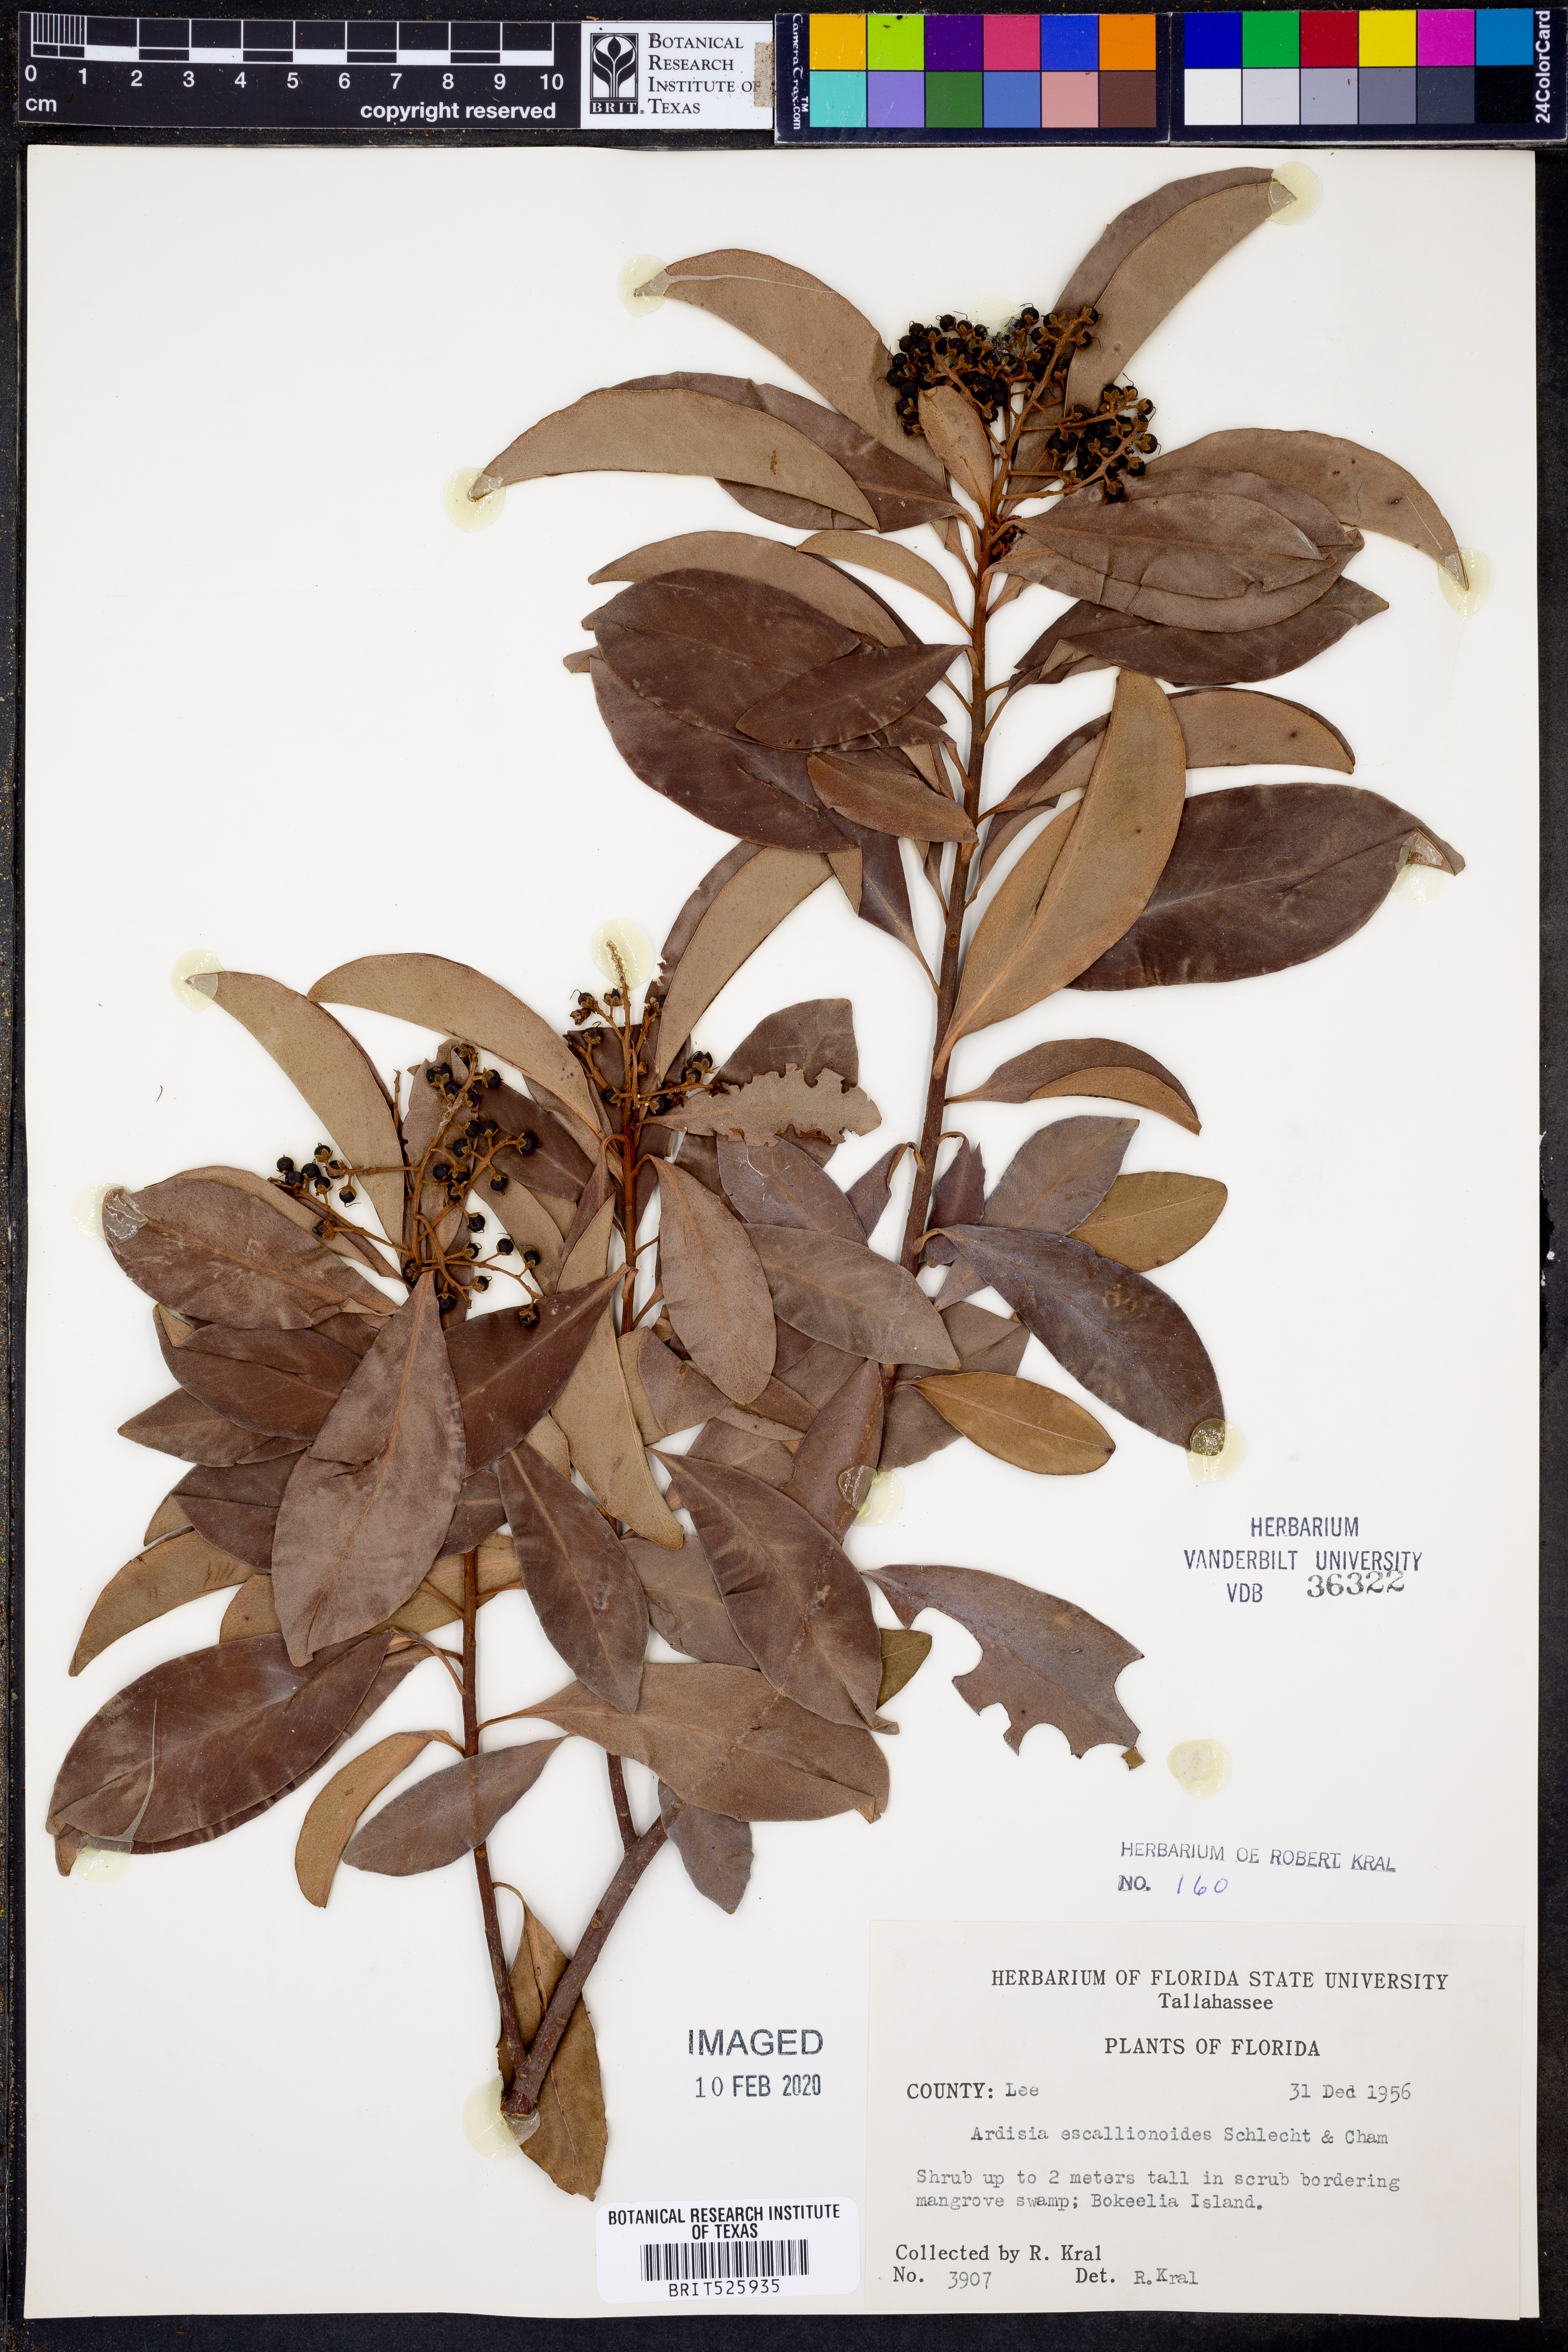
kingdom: Plantae
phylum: Tracheophyta
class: Magnoliopsida
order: Ericales
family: Primulaceae
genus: Ardisia
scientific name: Ardisia escallonioides
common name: Island marlberry
